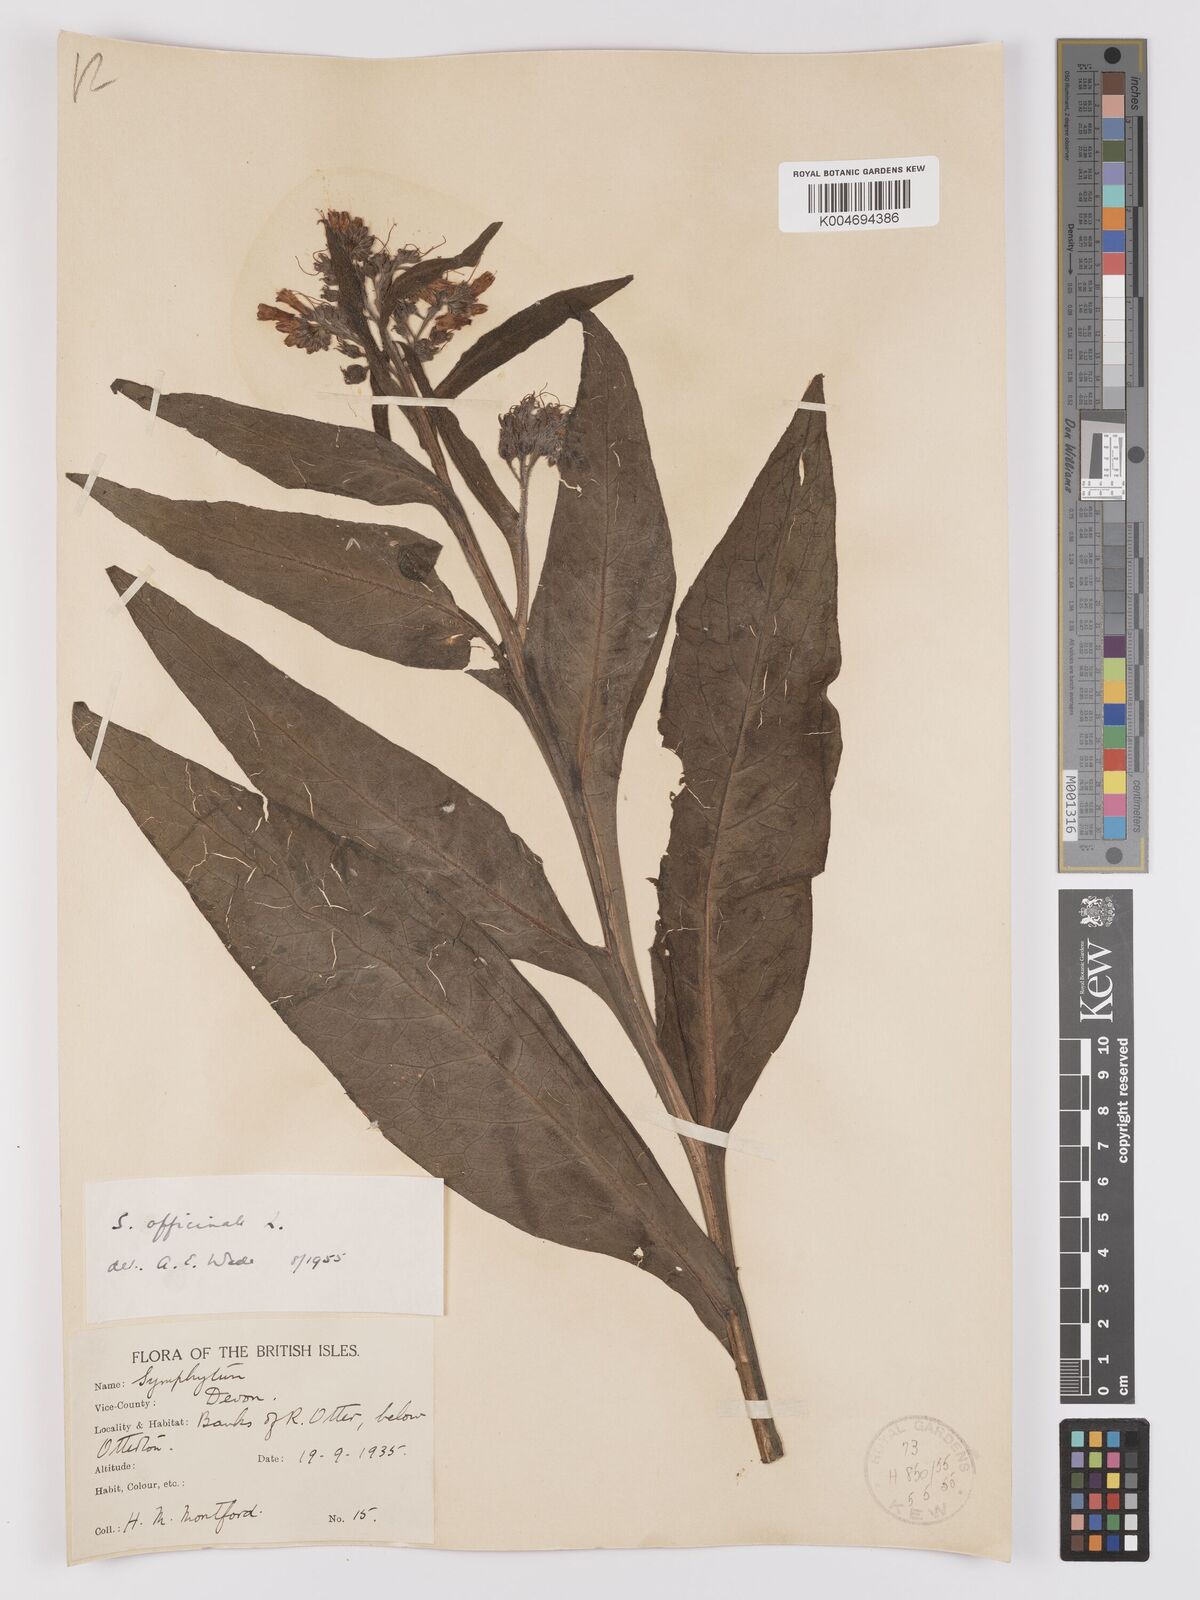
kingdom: Plantae
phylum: Tracheophyta
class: Magnoliopsida
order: Boraginales
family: Boraginaceae
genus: Symphytum
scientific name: Symphytum officinale
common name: Common comfrey
